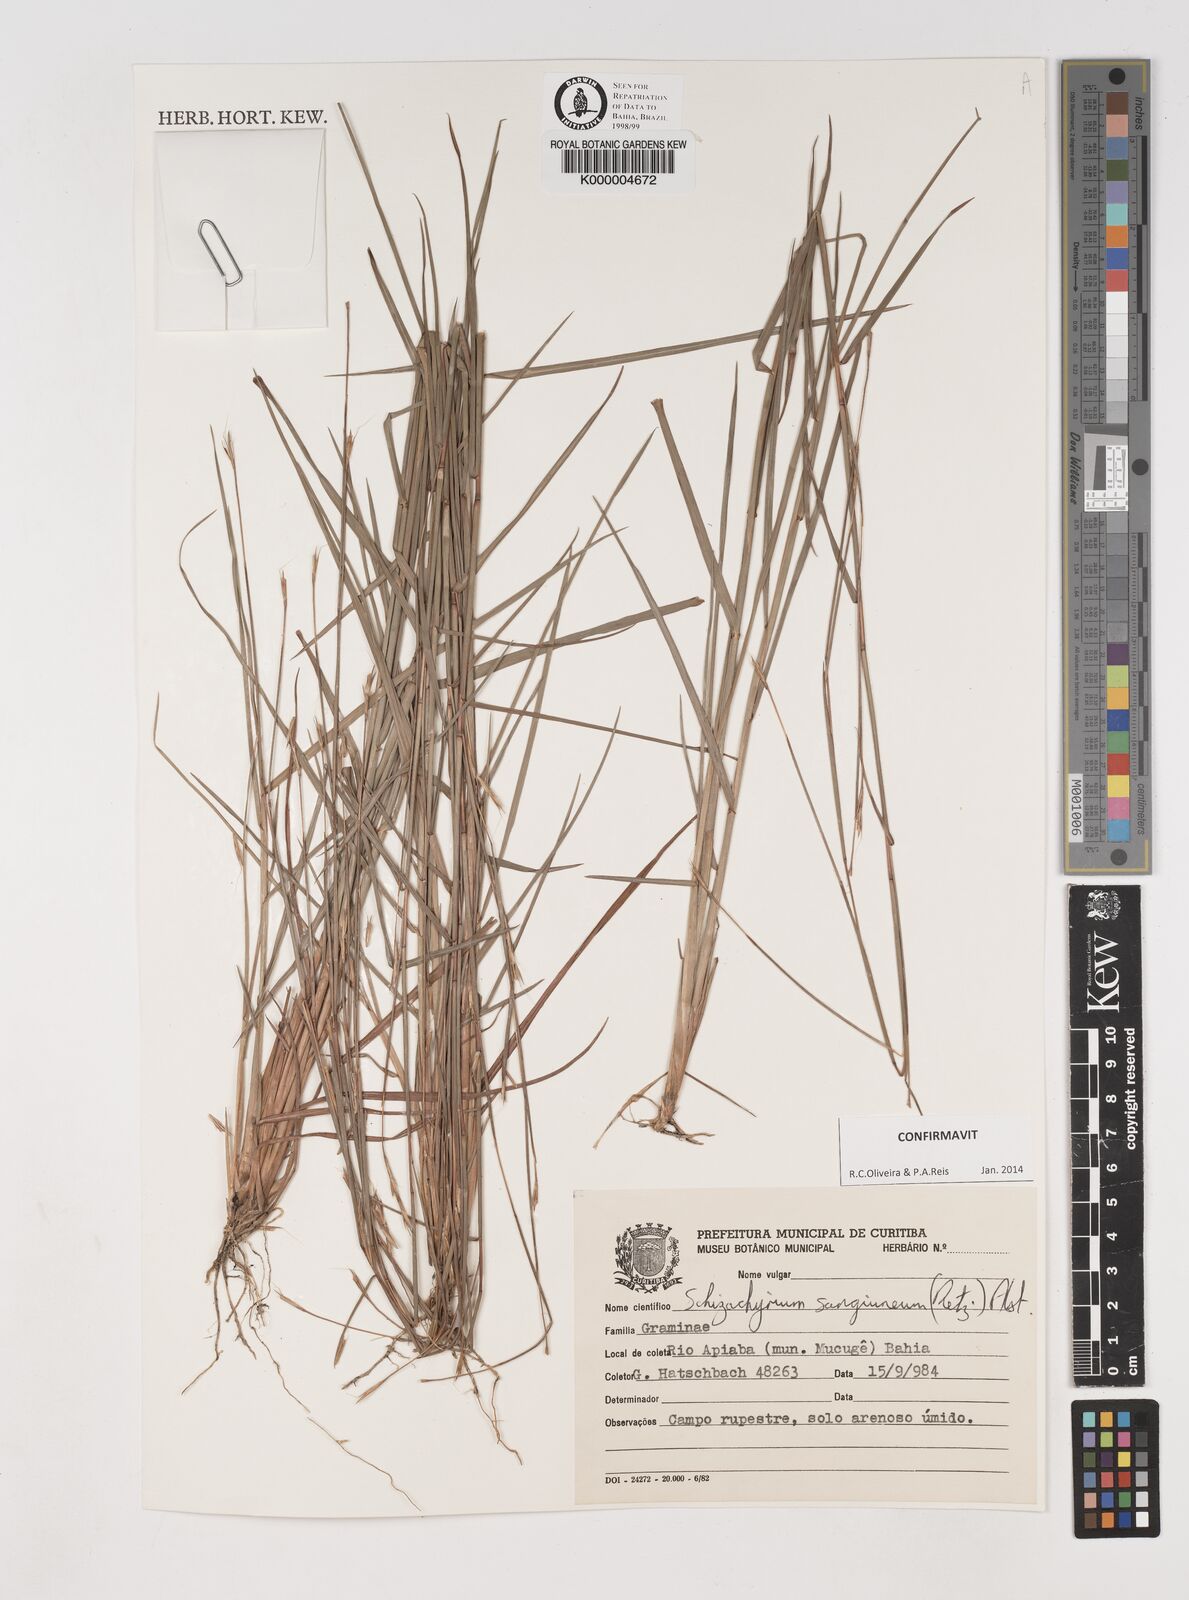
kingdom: Plantae
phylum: Tracheophyta
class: Liliopsida
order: Poales
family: Poaceae
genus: Schizachyrium
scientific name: Schizachyrium sanguineum
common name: Crimson bluestem
